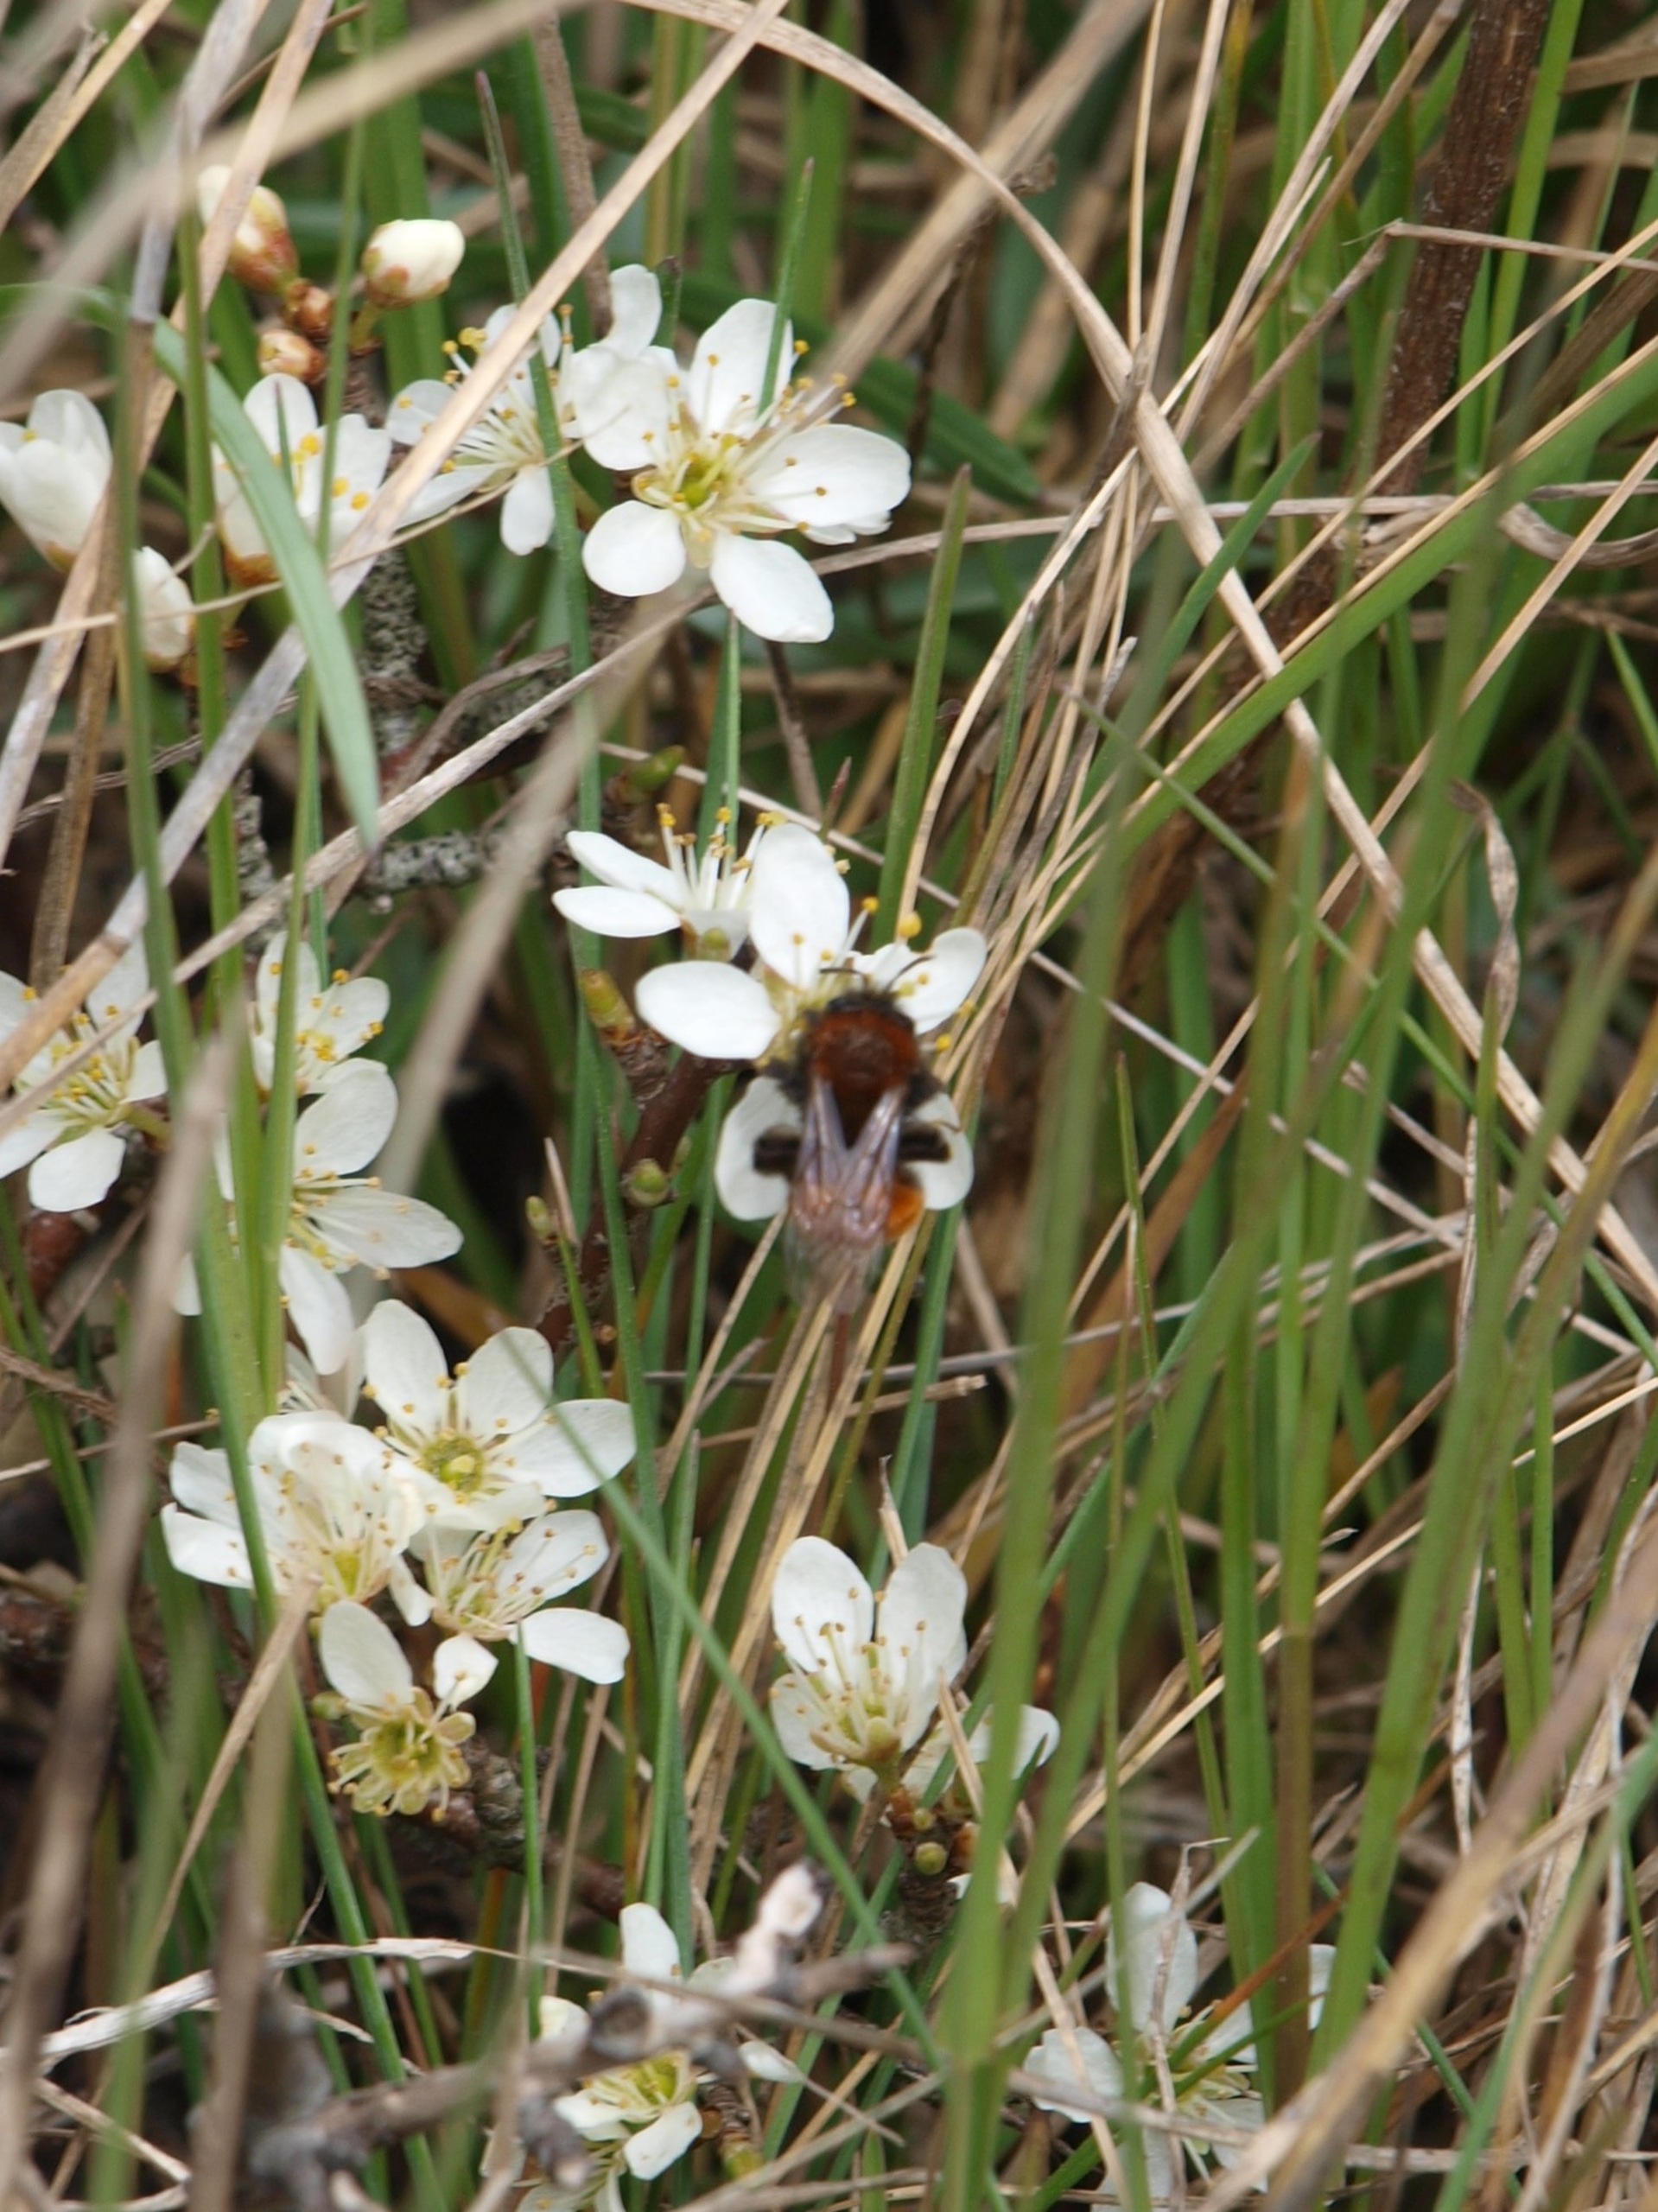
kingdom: Animalia
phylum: Arthropoda
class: Insecta
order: Hymenoptera
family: Andrenidae
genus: Andrena
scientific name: Andrena fulva
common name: Rødpelset jordbi
